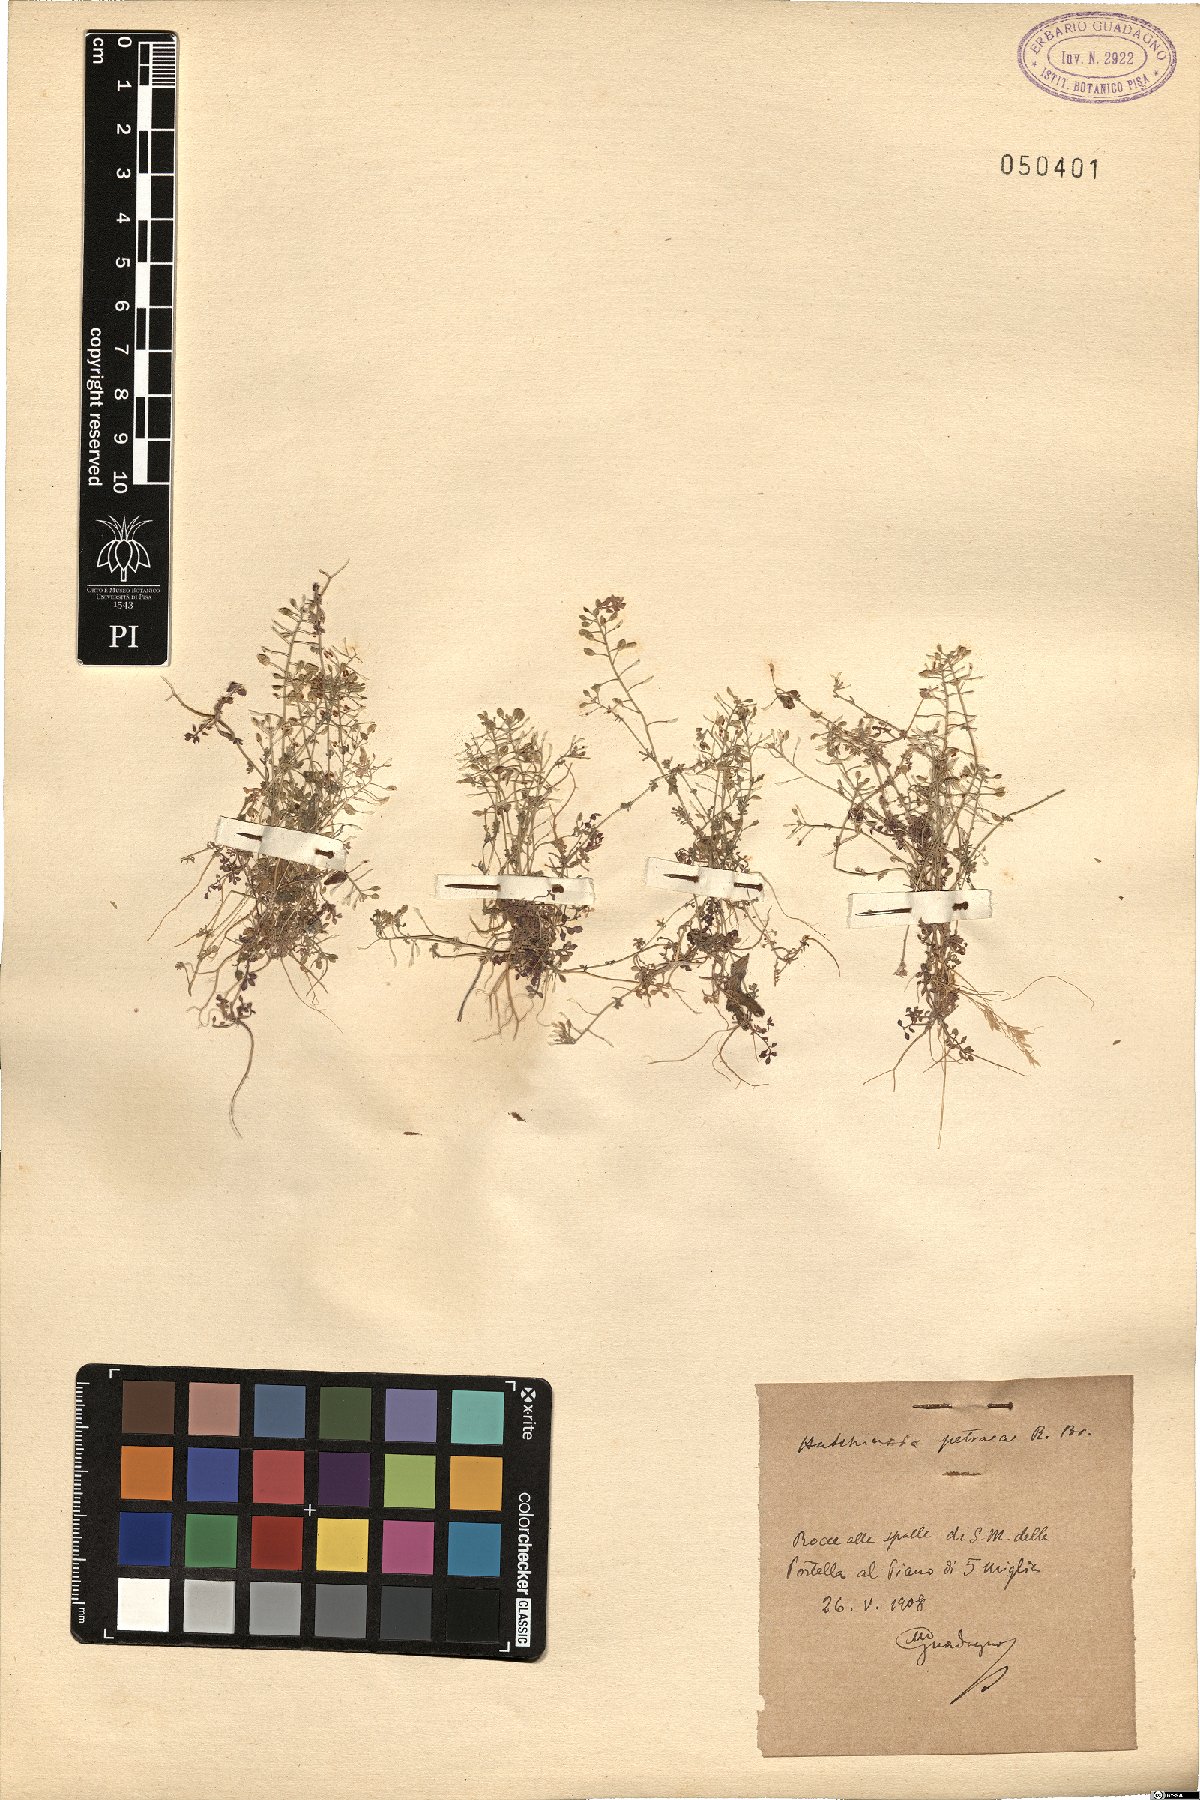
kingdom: Plantae
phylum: Tracheophyta
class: Magnoliopsida
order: Brassicales
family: Brassicaceae
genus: Hornungia
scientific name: Hornungia petraea
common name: Hutchinsia
